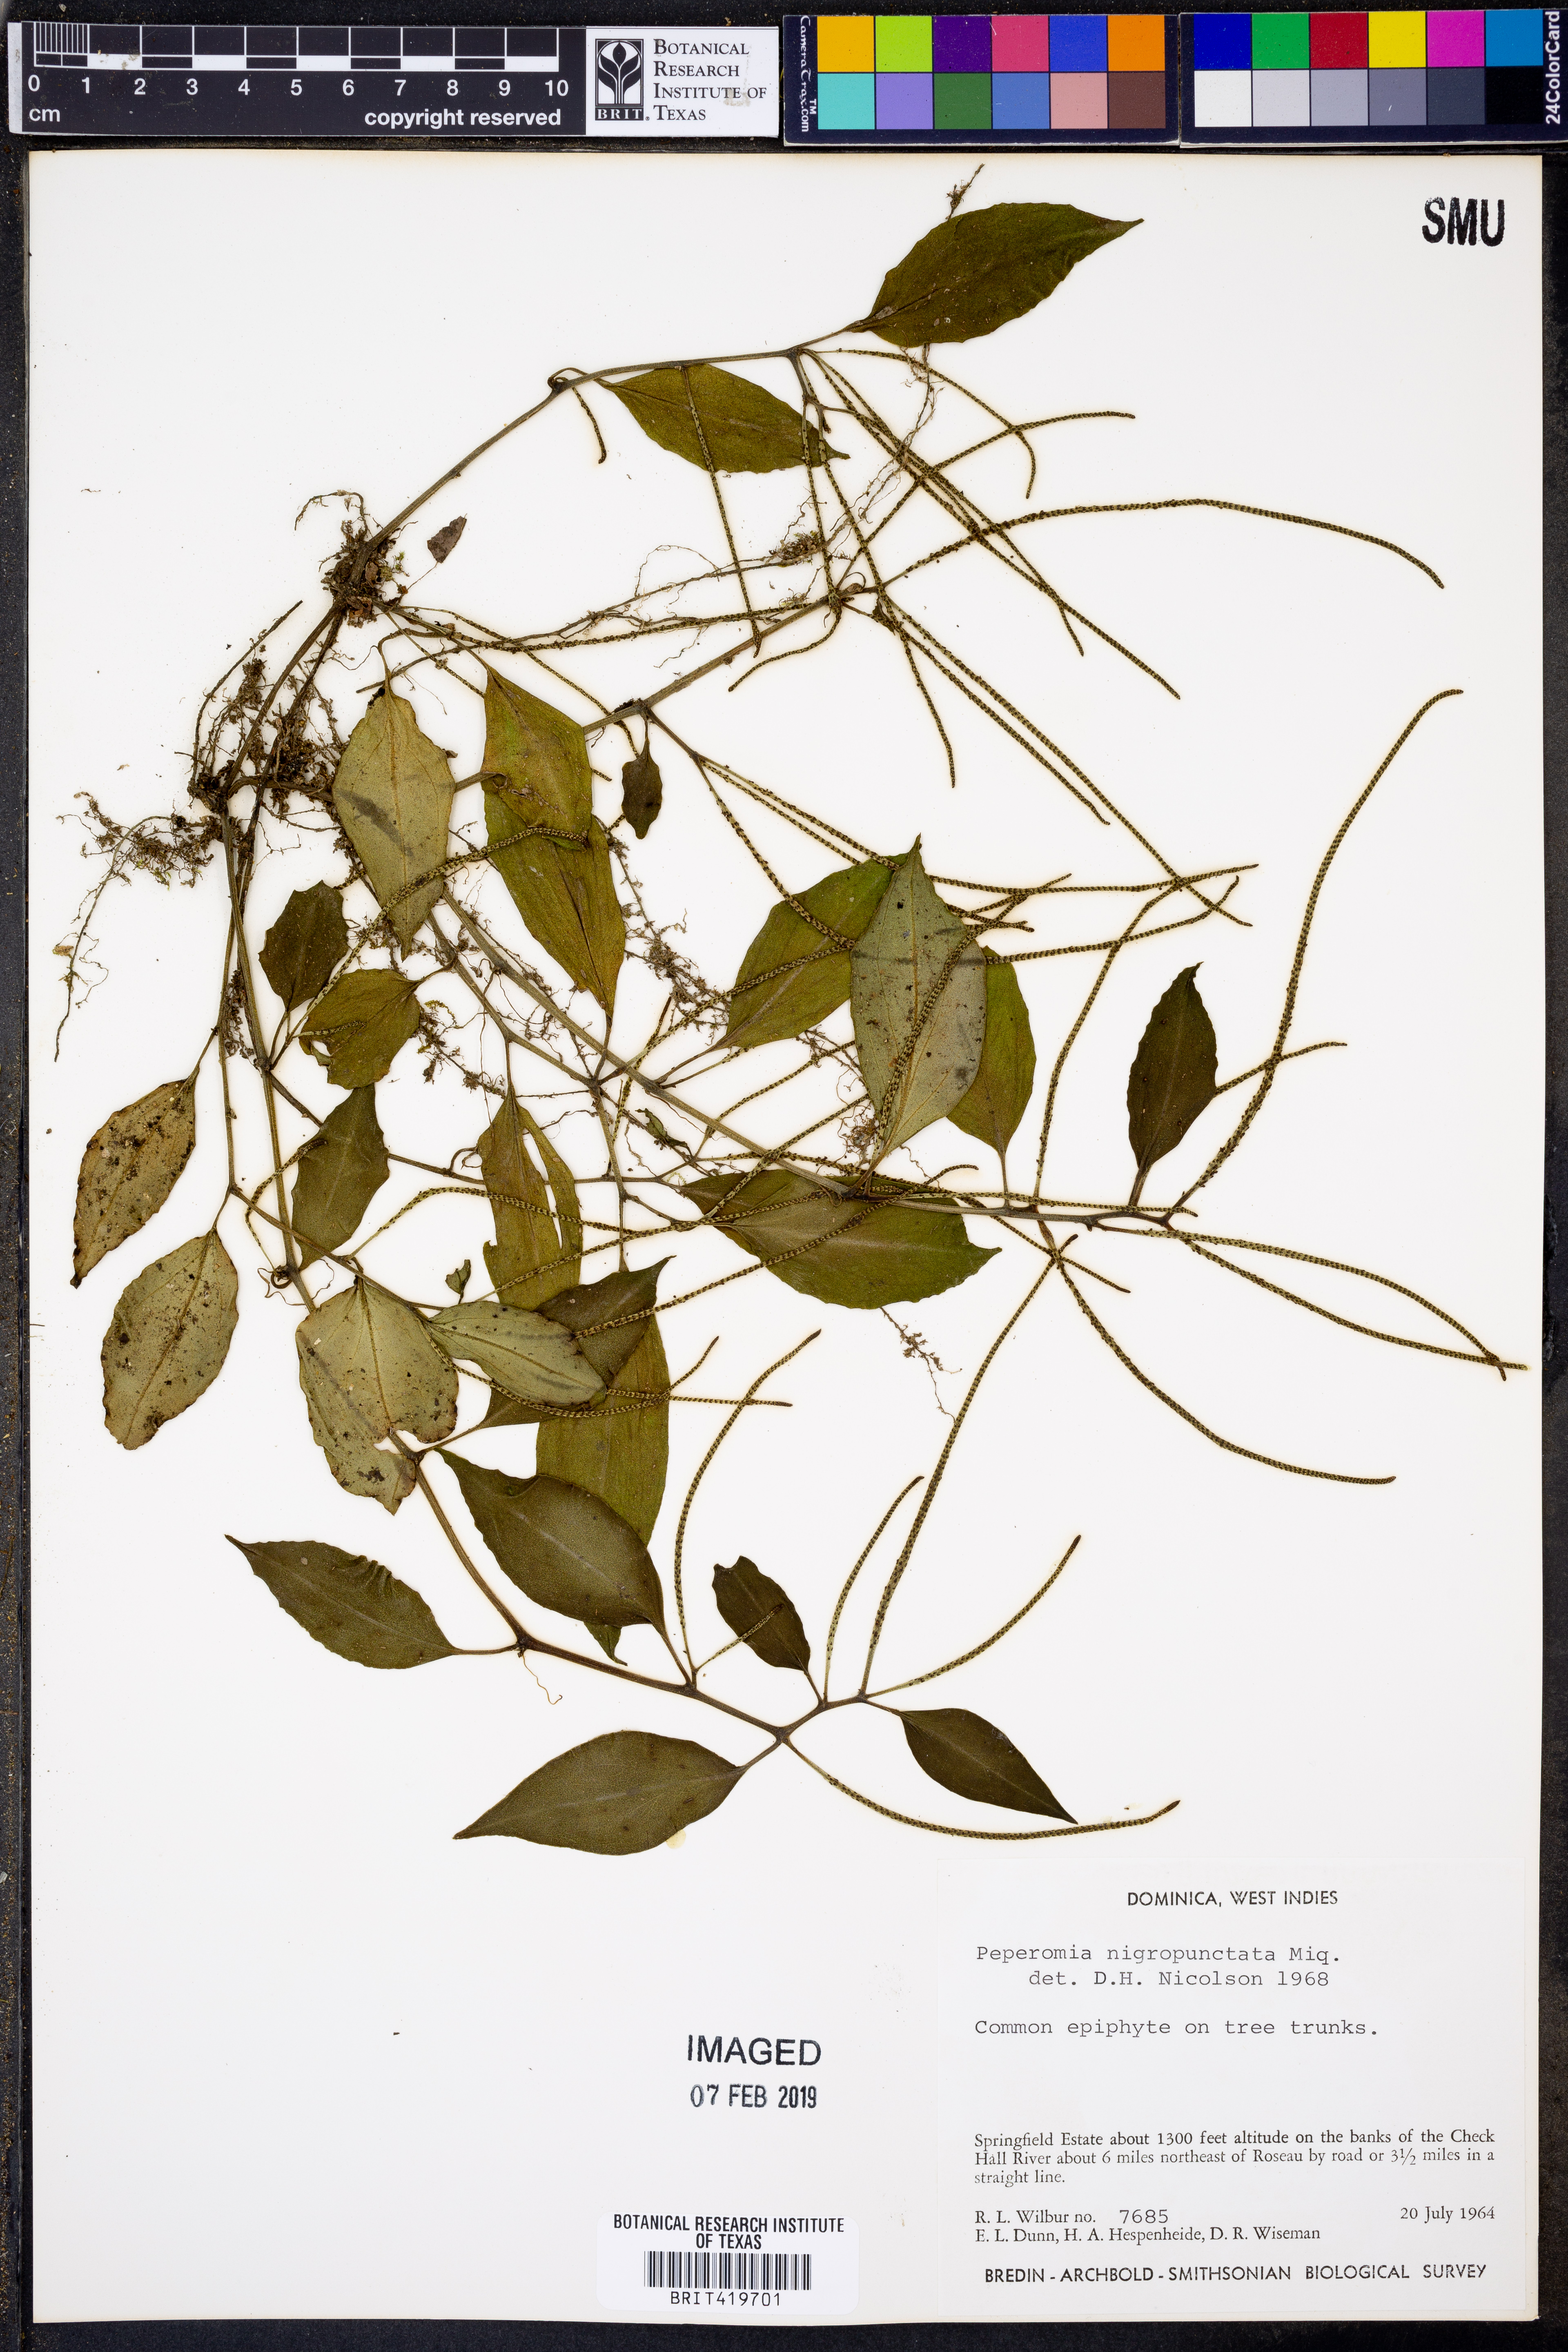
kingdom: Plantae
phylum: Tracheophyta
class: Magnoliopsida
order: Piperales
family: Piperaceae
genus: Peperomia
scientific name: Peperomia glabella
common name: Cypress peperomia
